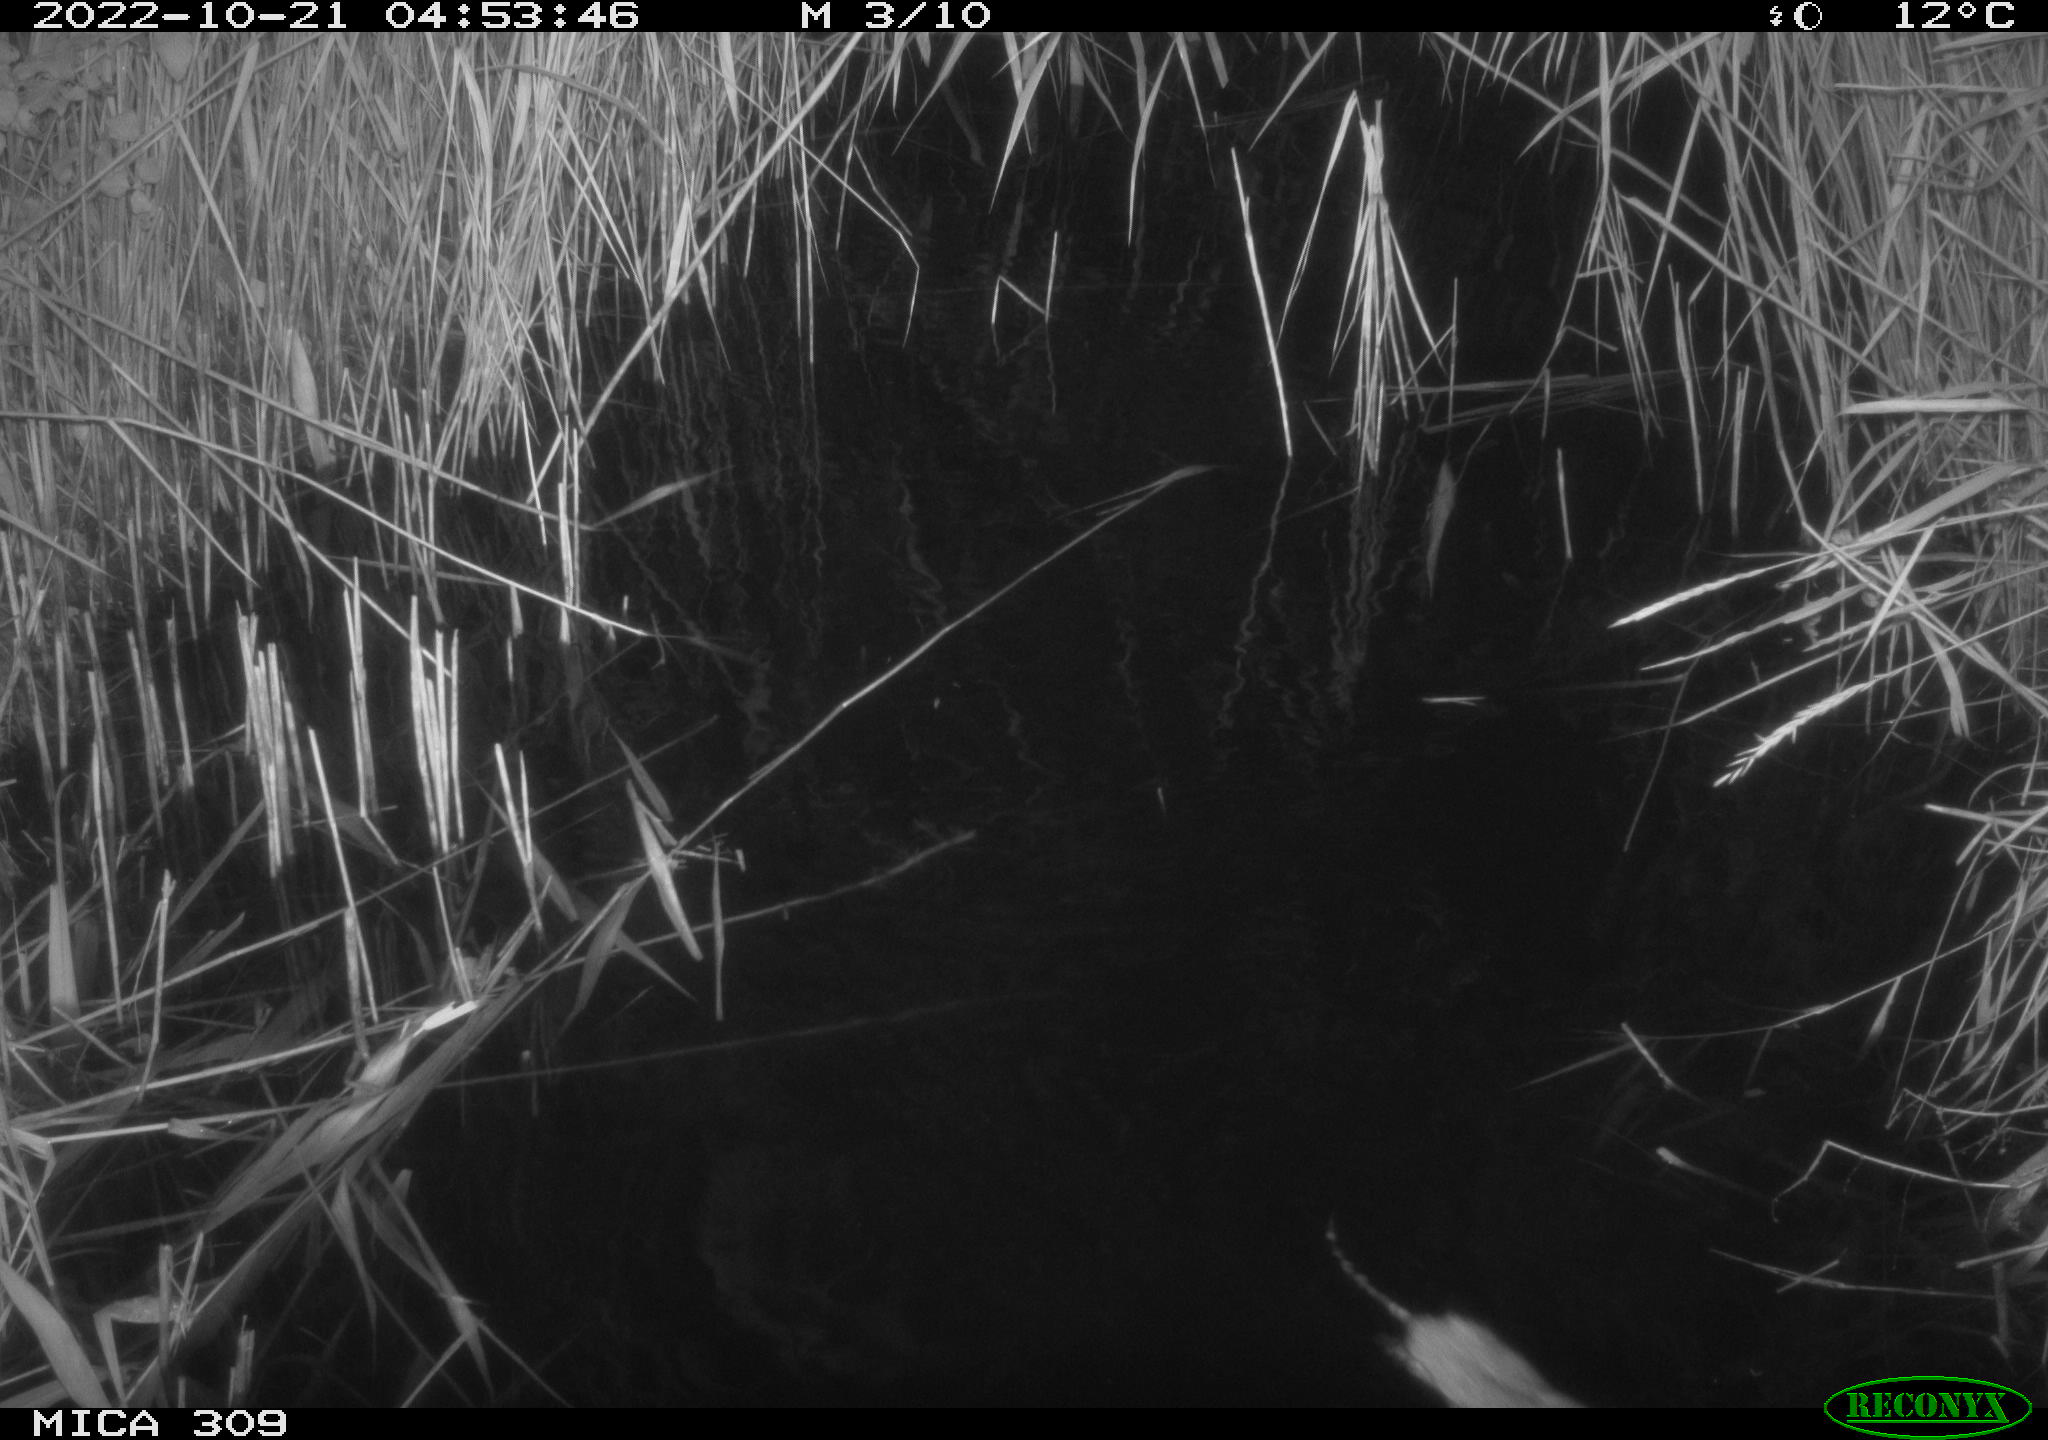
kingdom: Animalia
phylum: Chordata
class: Mammalia
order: Rodentia
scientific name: Rodentia
